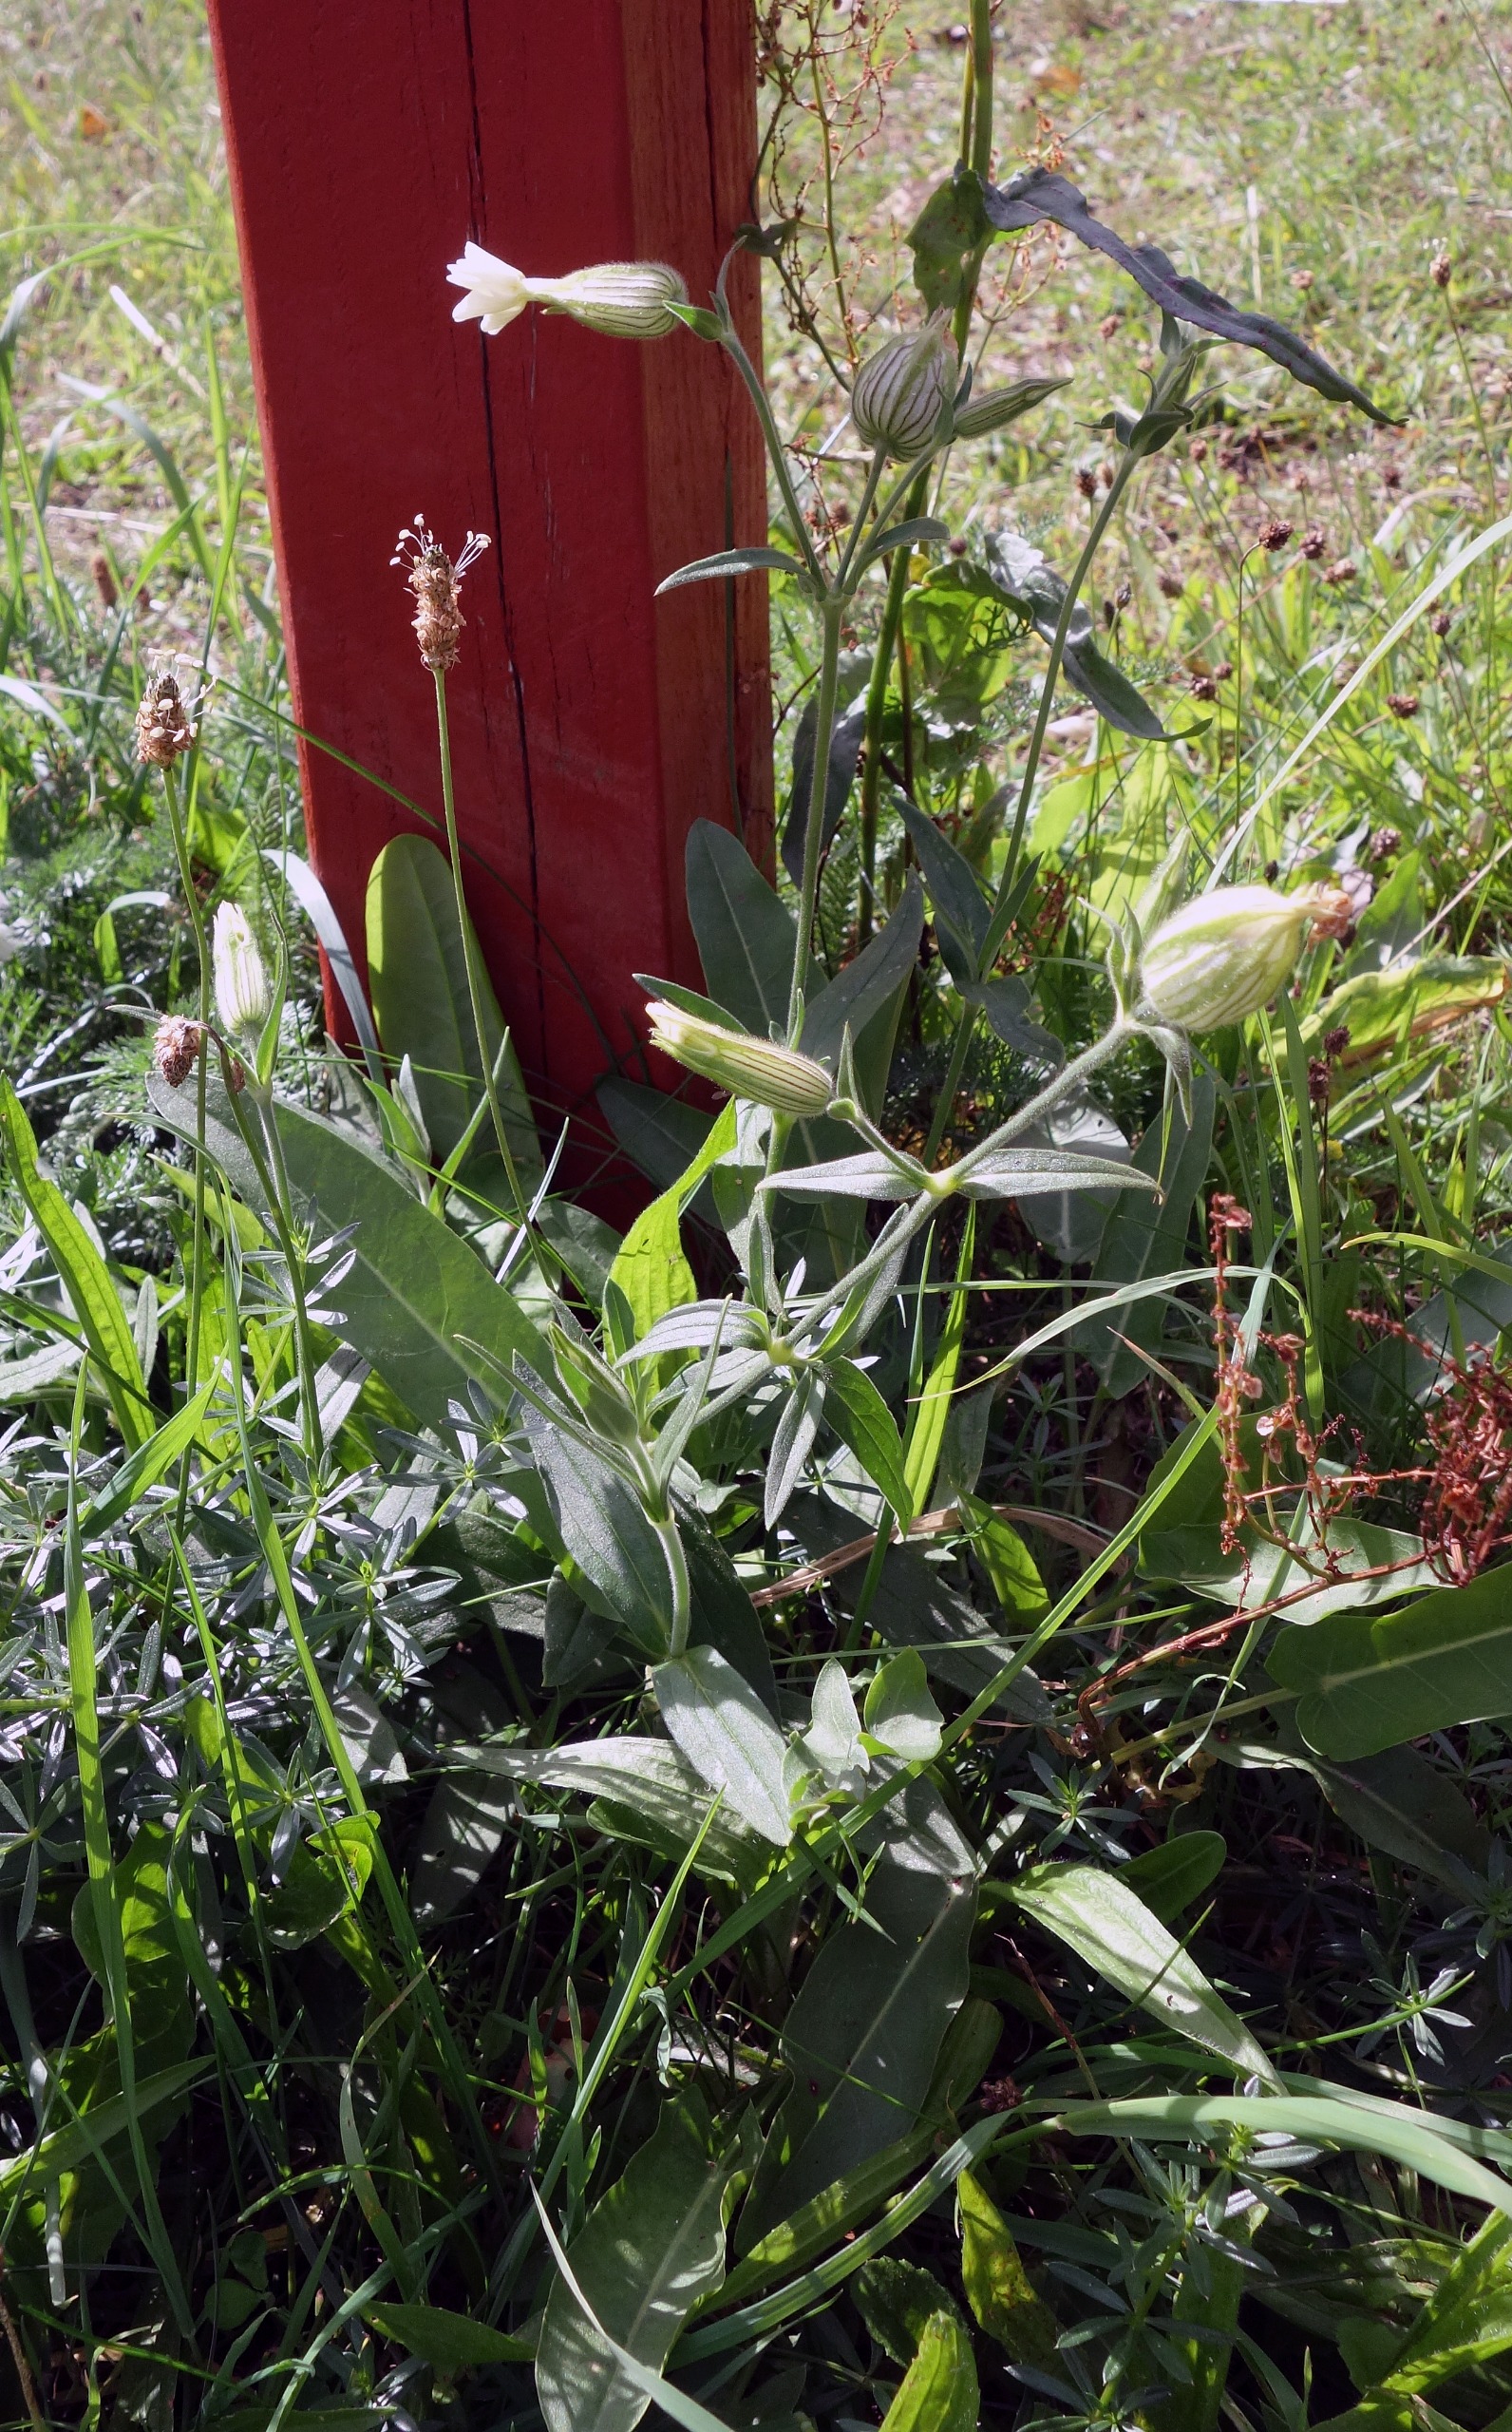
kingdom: Plantae
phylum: Tracheophyta
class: Magnoliopsida
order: Caryophyllales
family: Caryophyllaceae
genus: Silene
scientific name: Silene latifolia
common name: Aftenpragtstjerne
